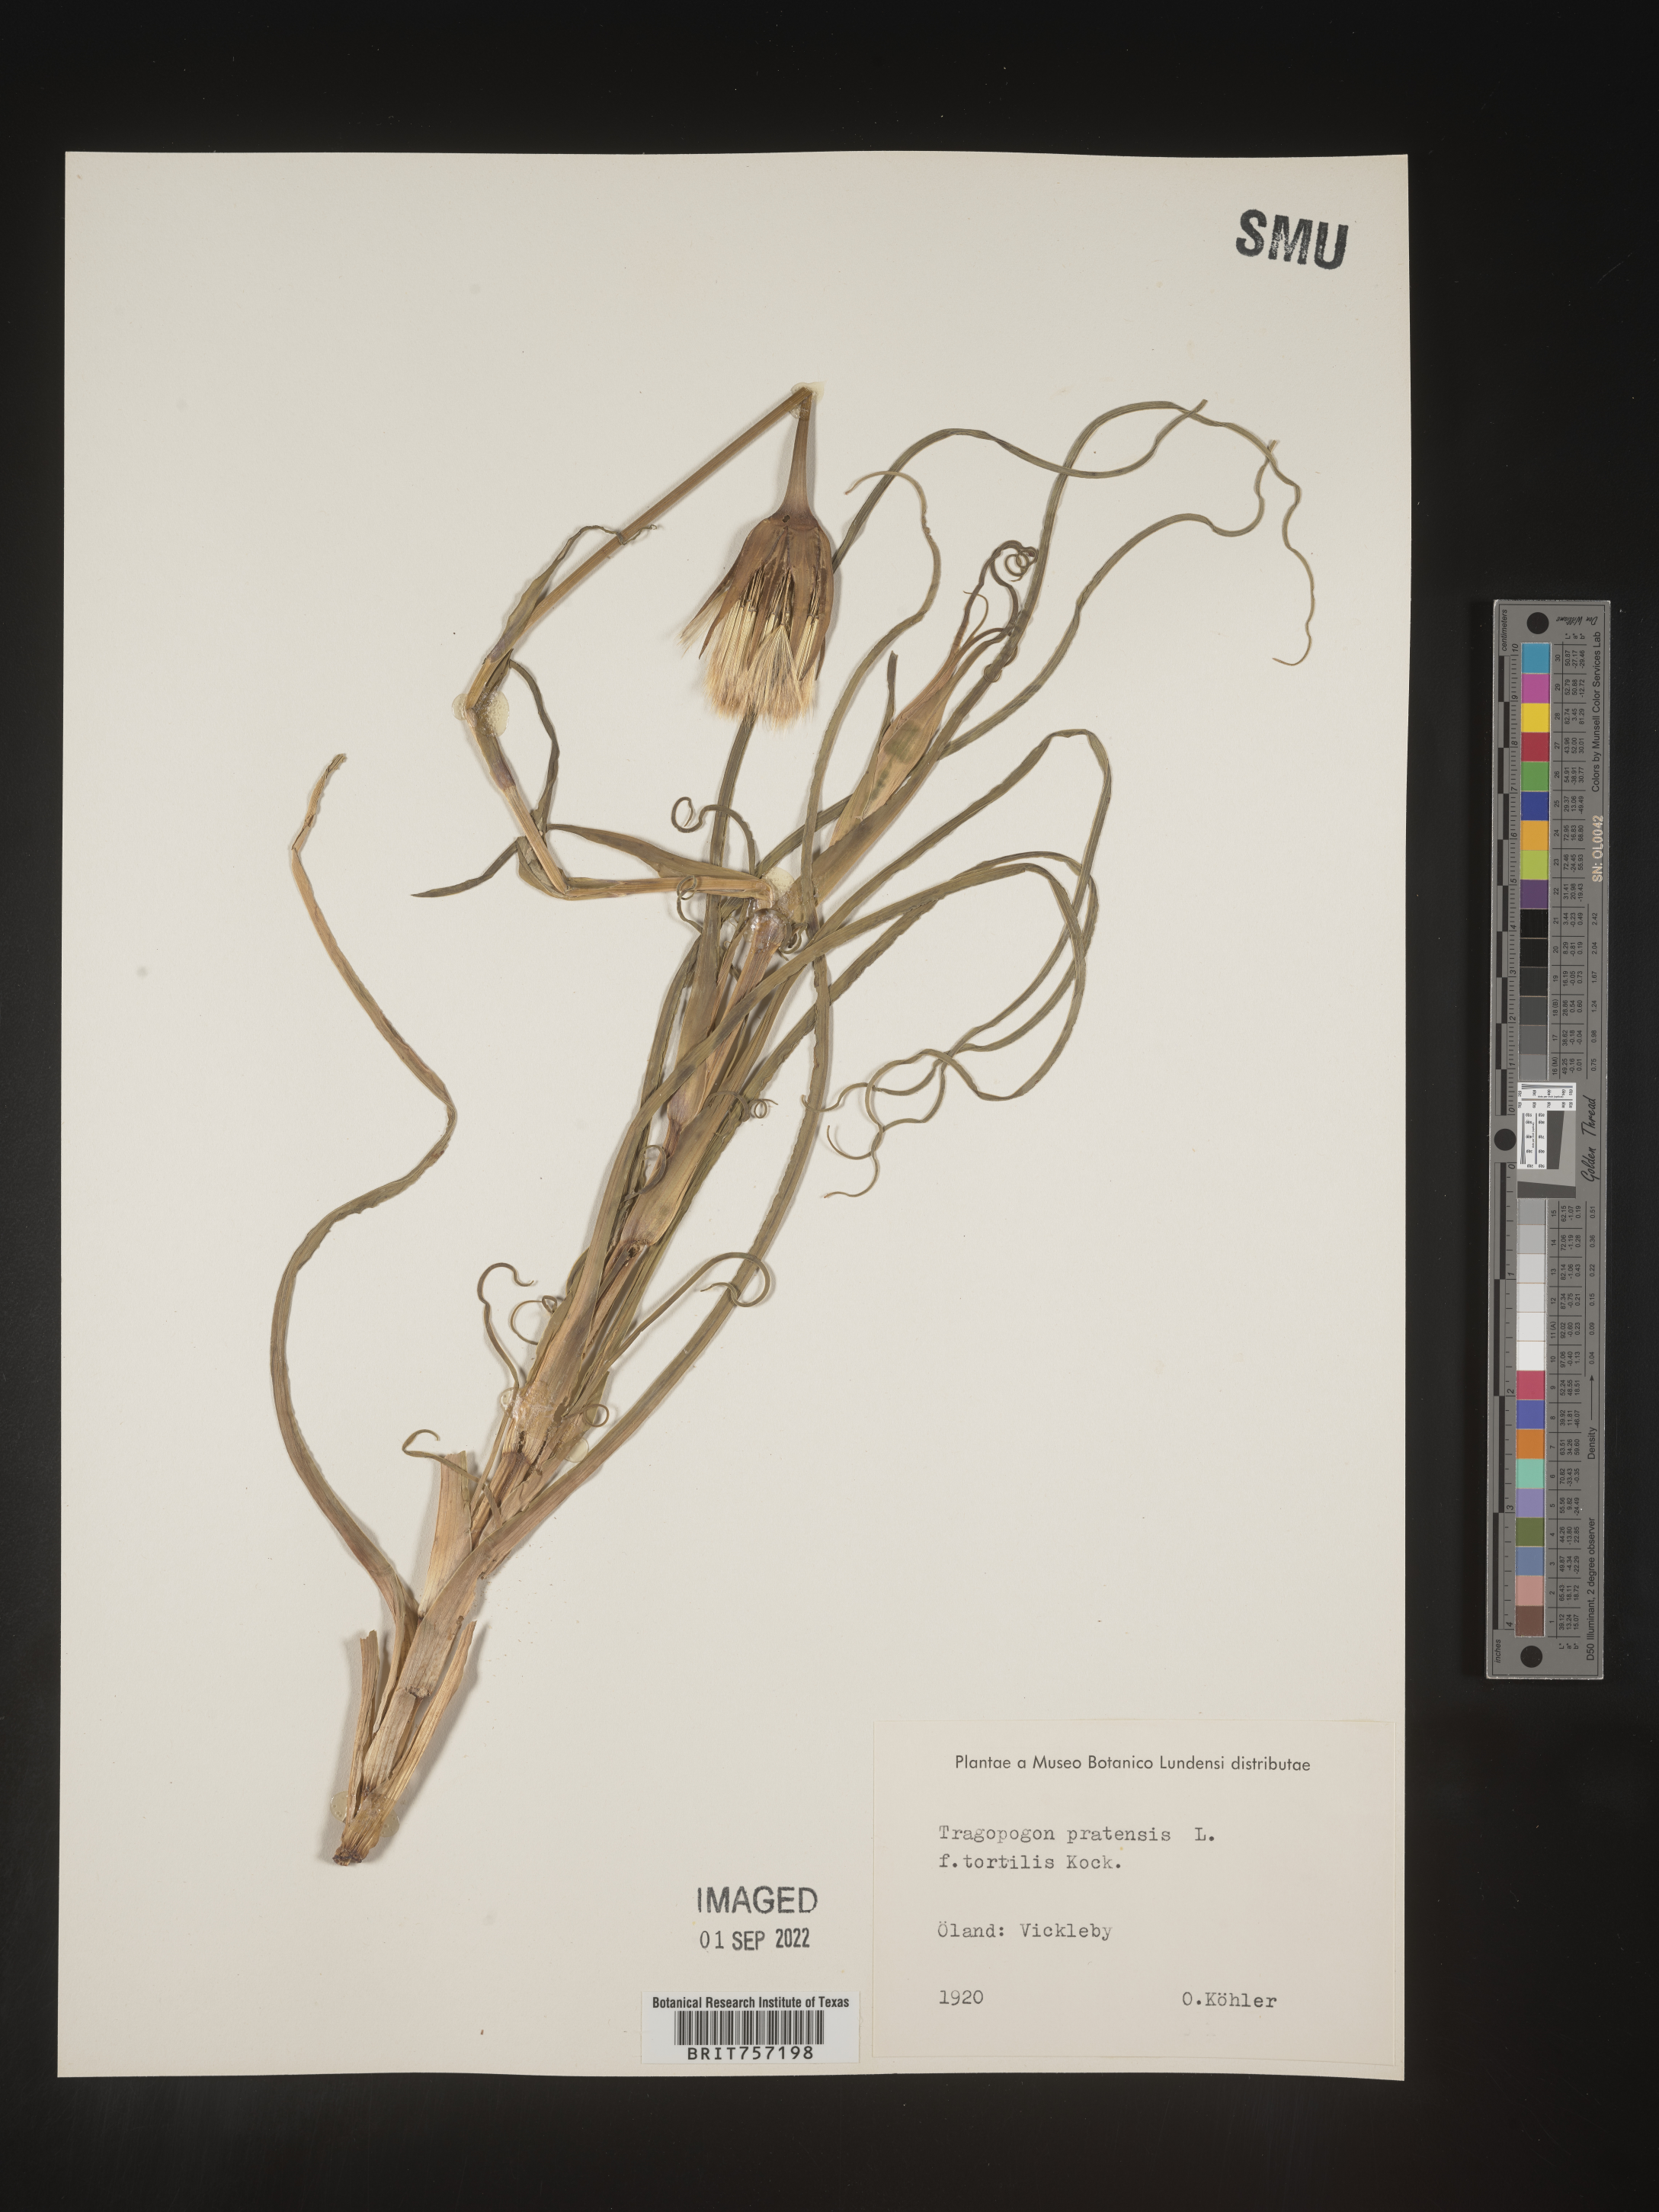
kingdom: Plantae
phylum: Tracheophyta
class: Magnoliopsida
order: Asterales
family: Asteraceae
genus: Tragopogon
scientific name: Tragopogon
